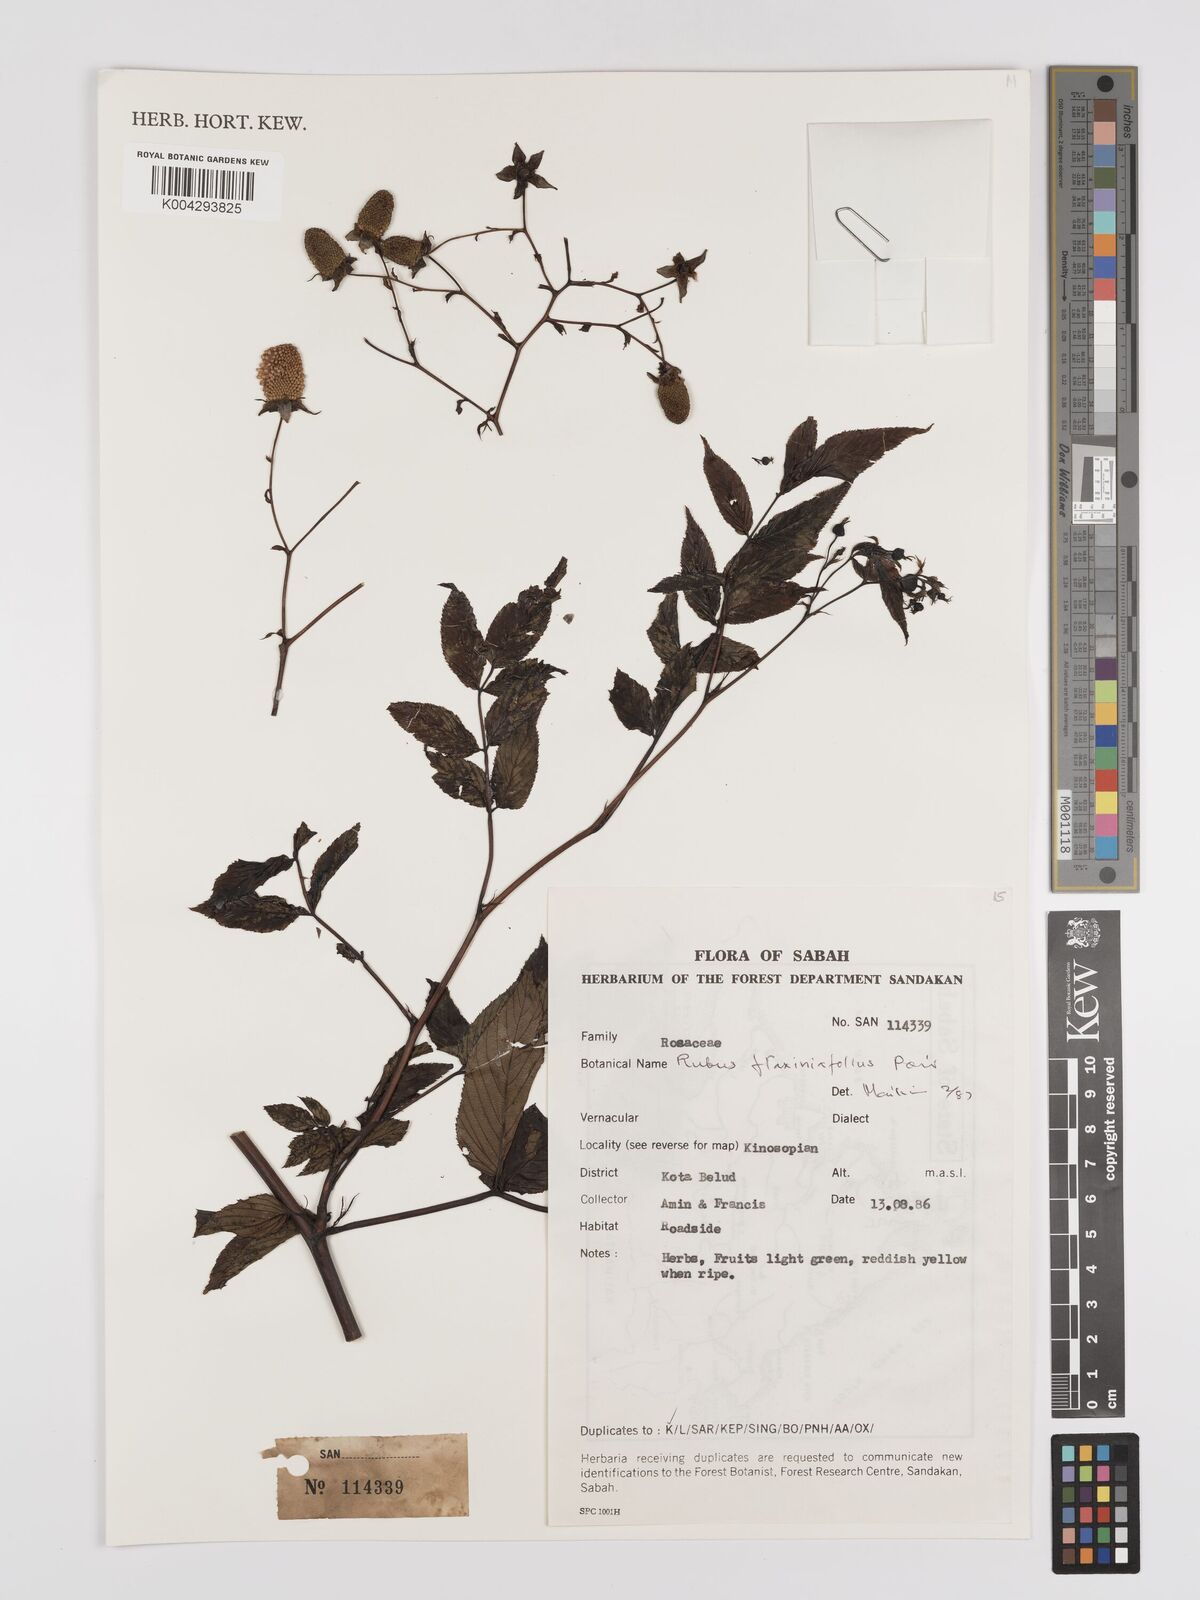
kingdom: Plantae
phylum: Tracheophyta
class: Magnoliopsida
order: Rosales
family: Rosaceae
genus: Rubus
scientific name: Rubus fraxinifolius
